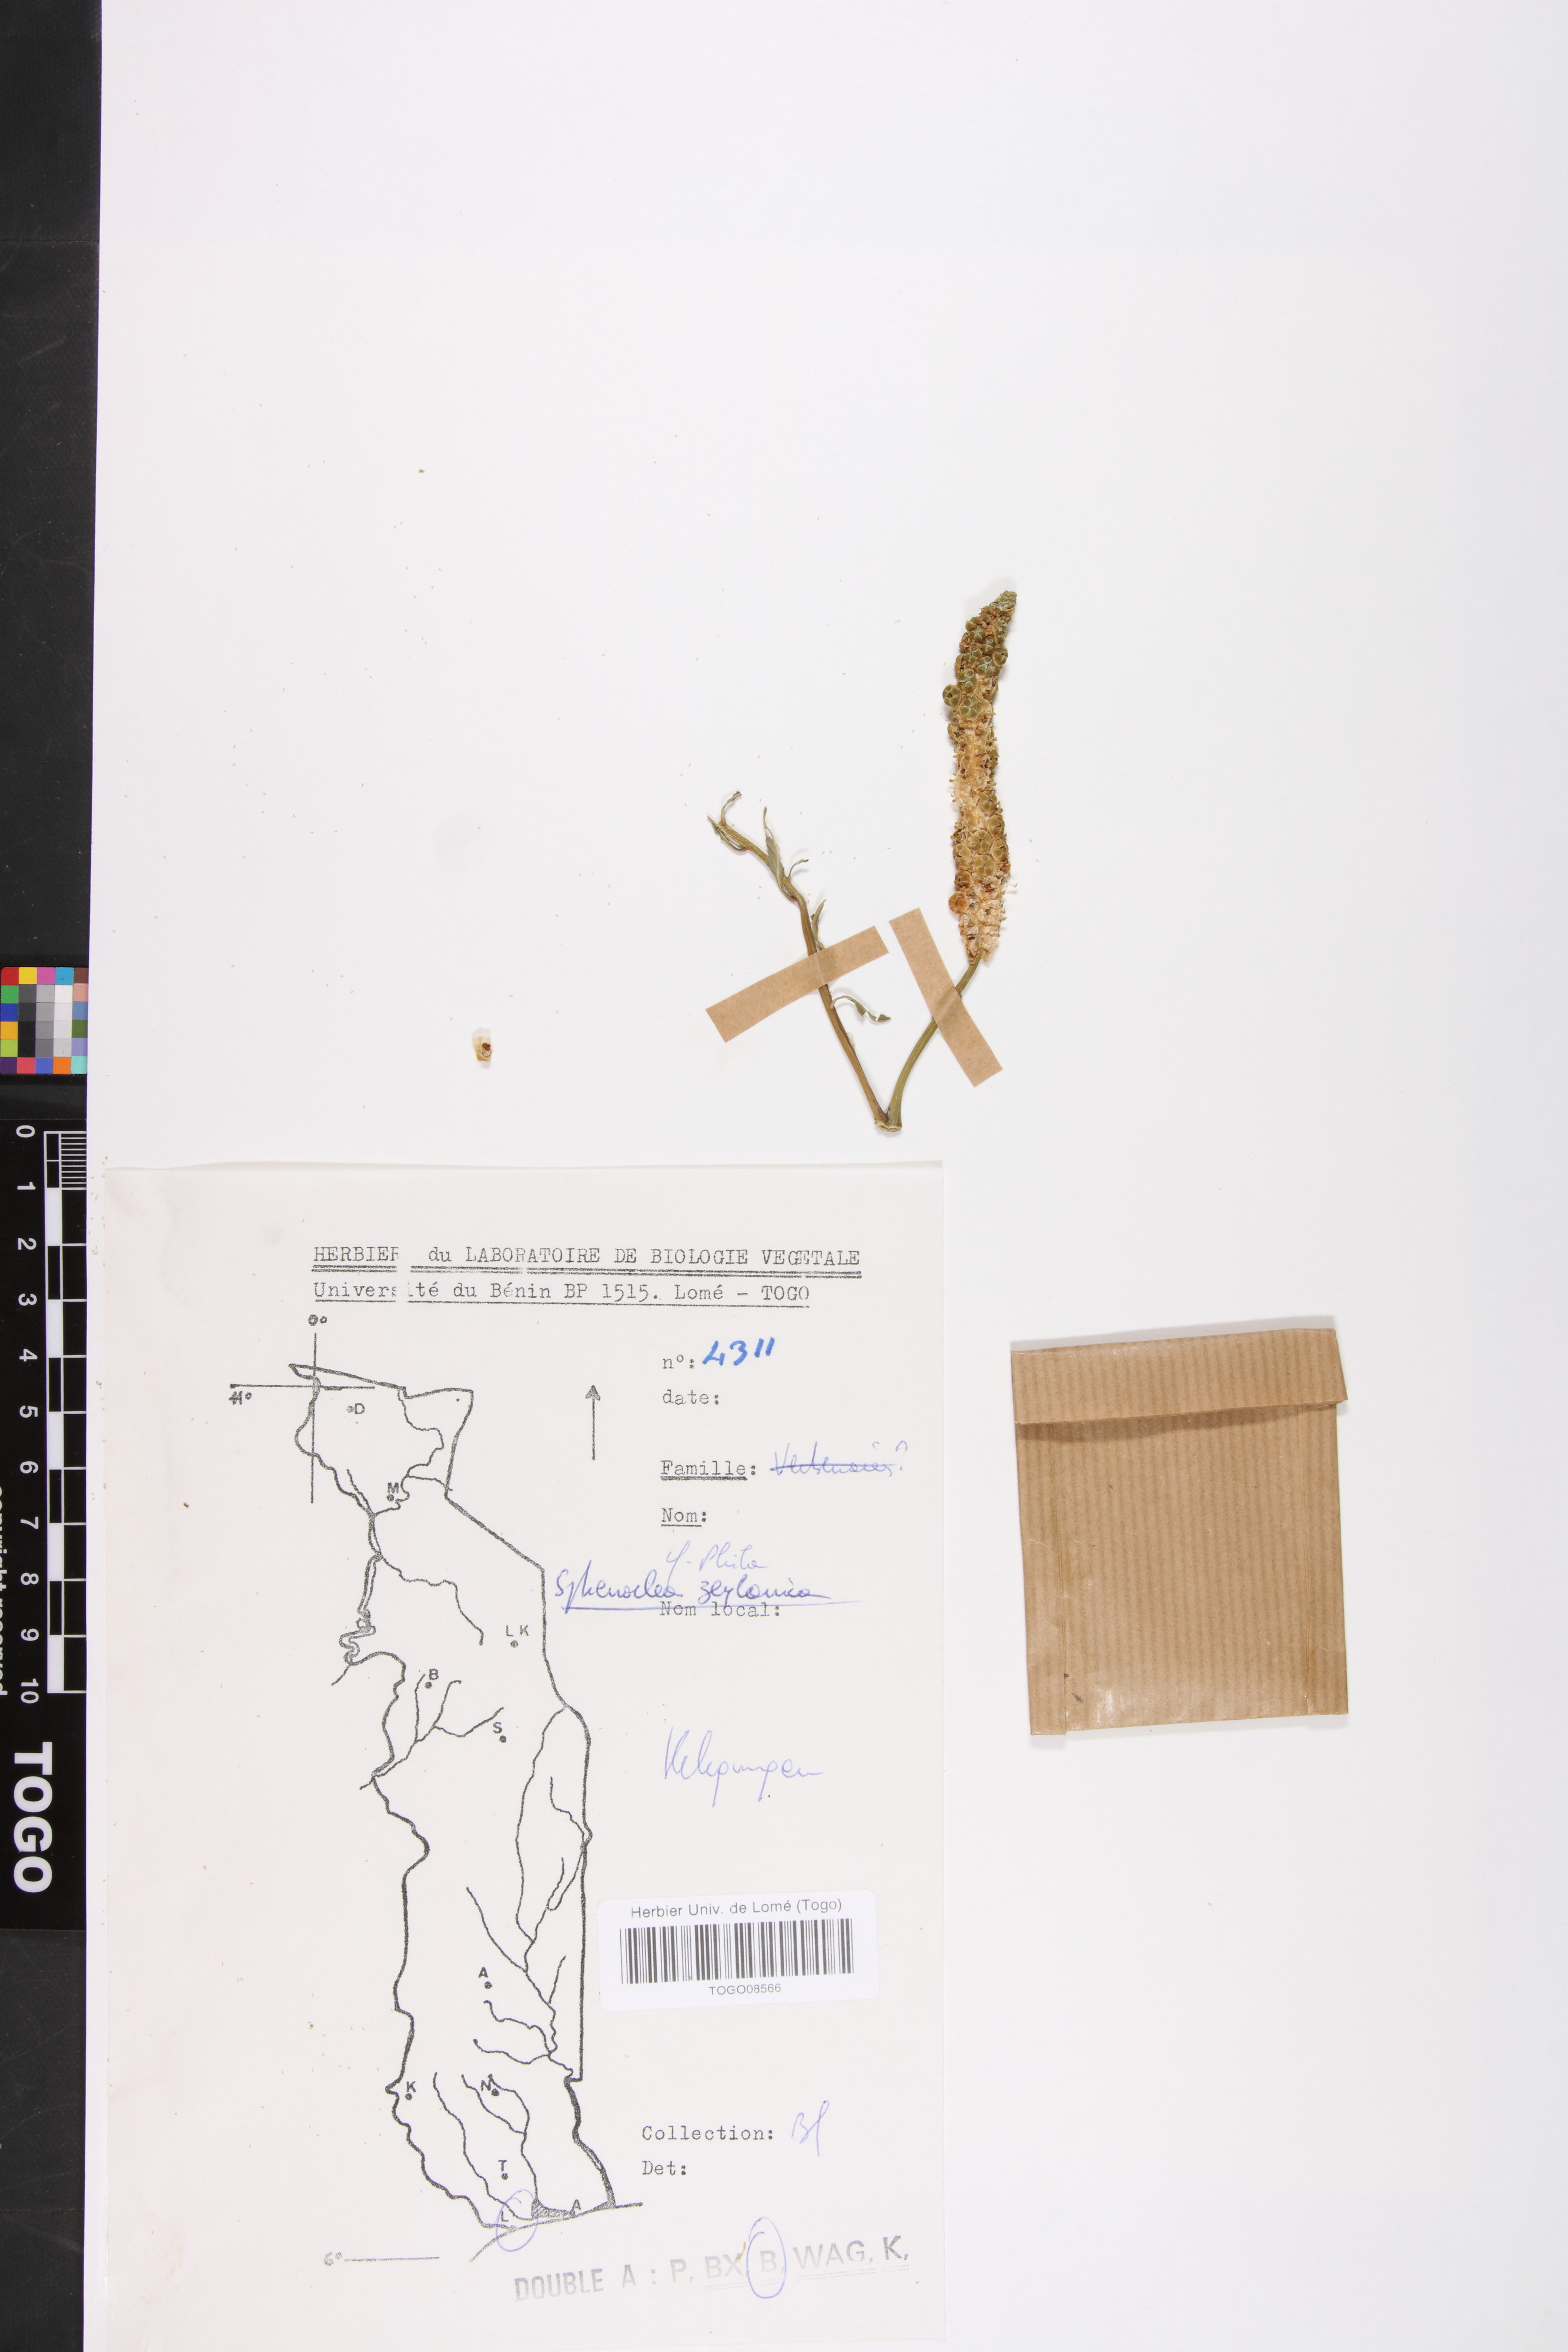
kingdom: Plantae
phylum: Tracheophyta
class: Magnoliopsida
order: Solanales
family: Sphenocleaceae
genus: Sphenoclea
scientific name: Sphenoclea zeylanica
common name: Chickenspike
